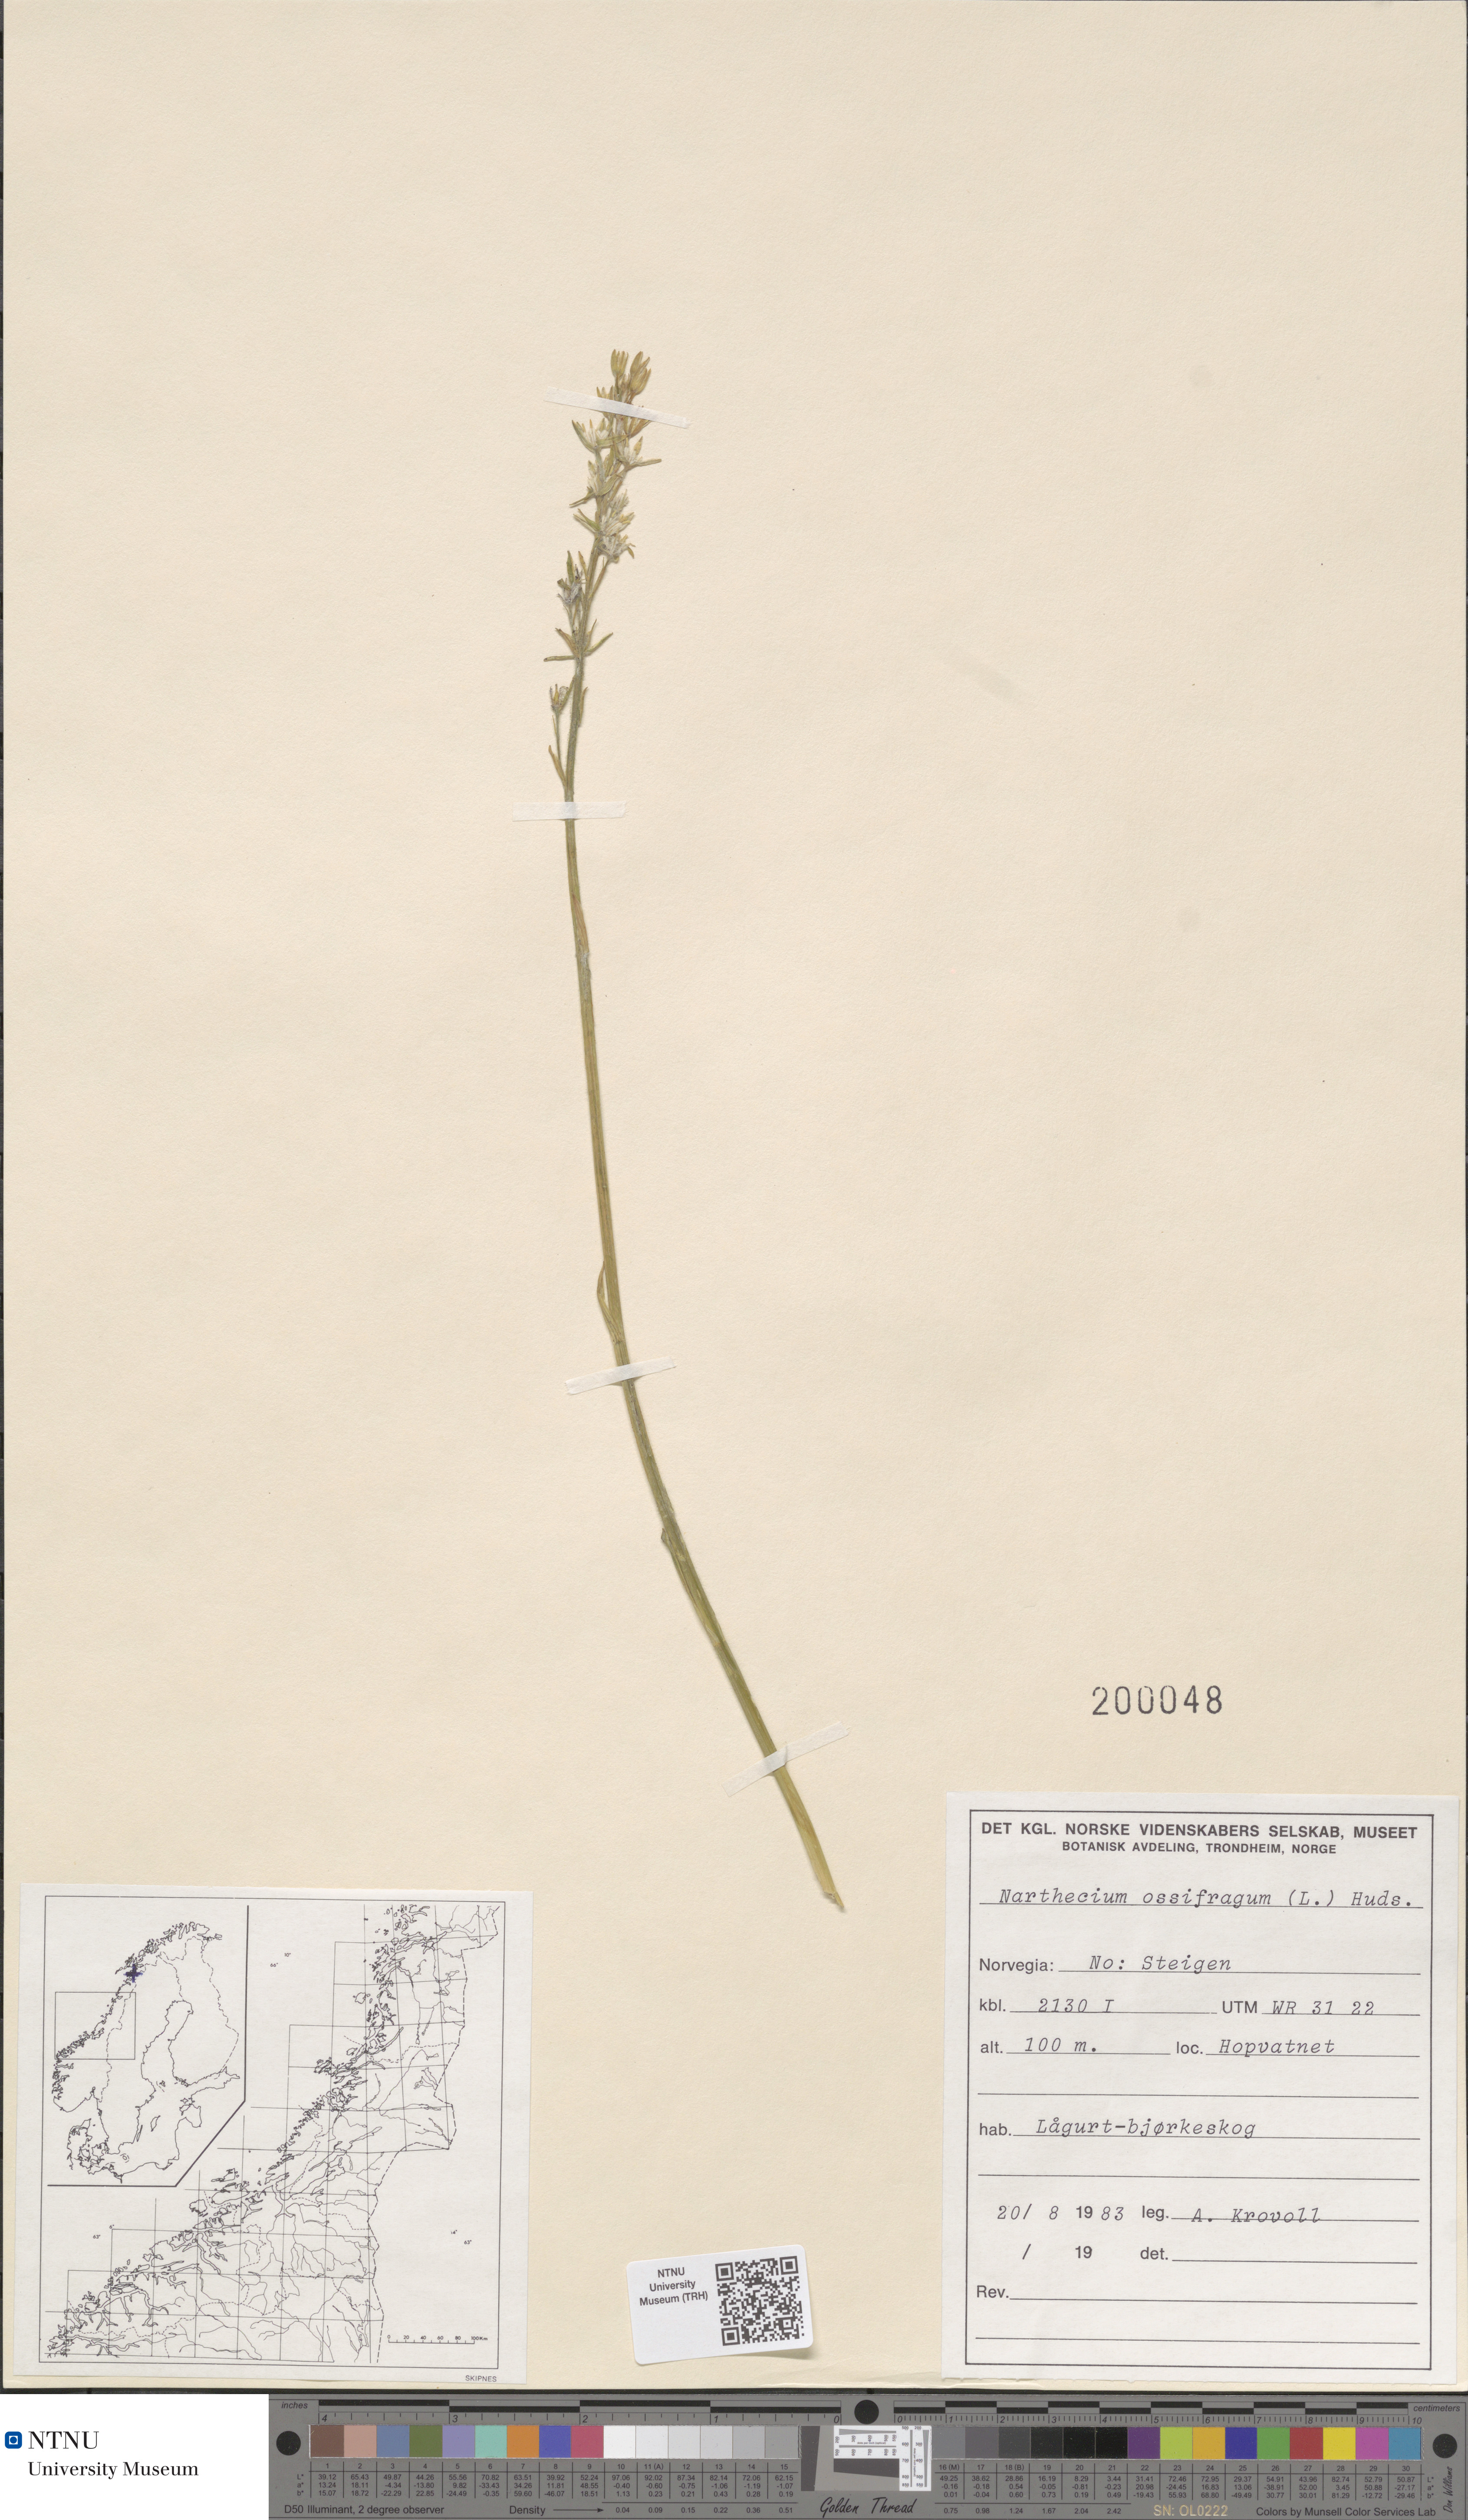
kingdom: Plantae
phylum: Tracheophyta
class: Liliopsida
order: Dioscoreales
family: Nartheciaceae
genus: Narthecium
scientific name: Narthecium ossifragum
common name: Bog asphodel
